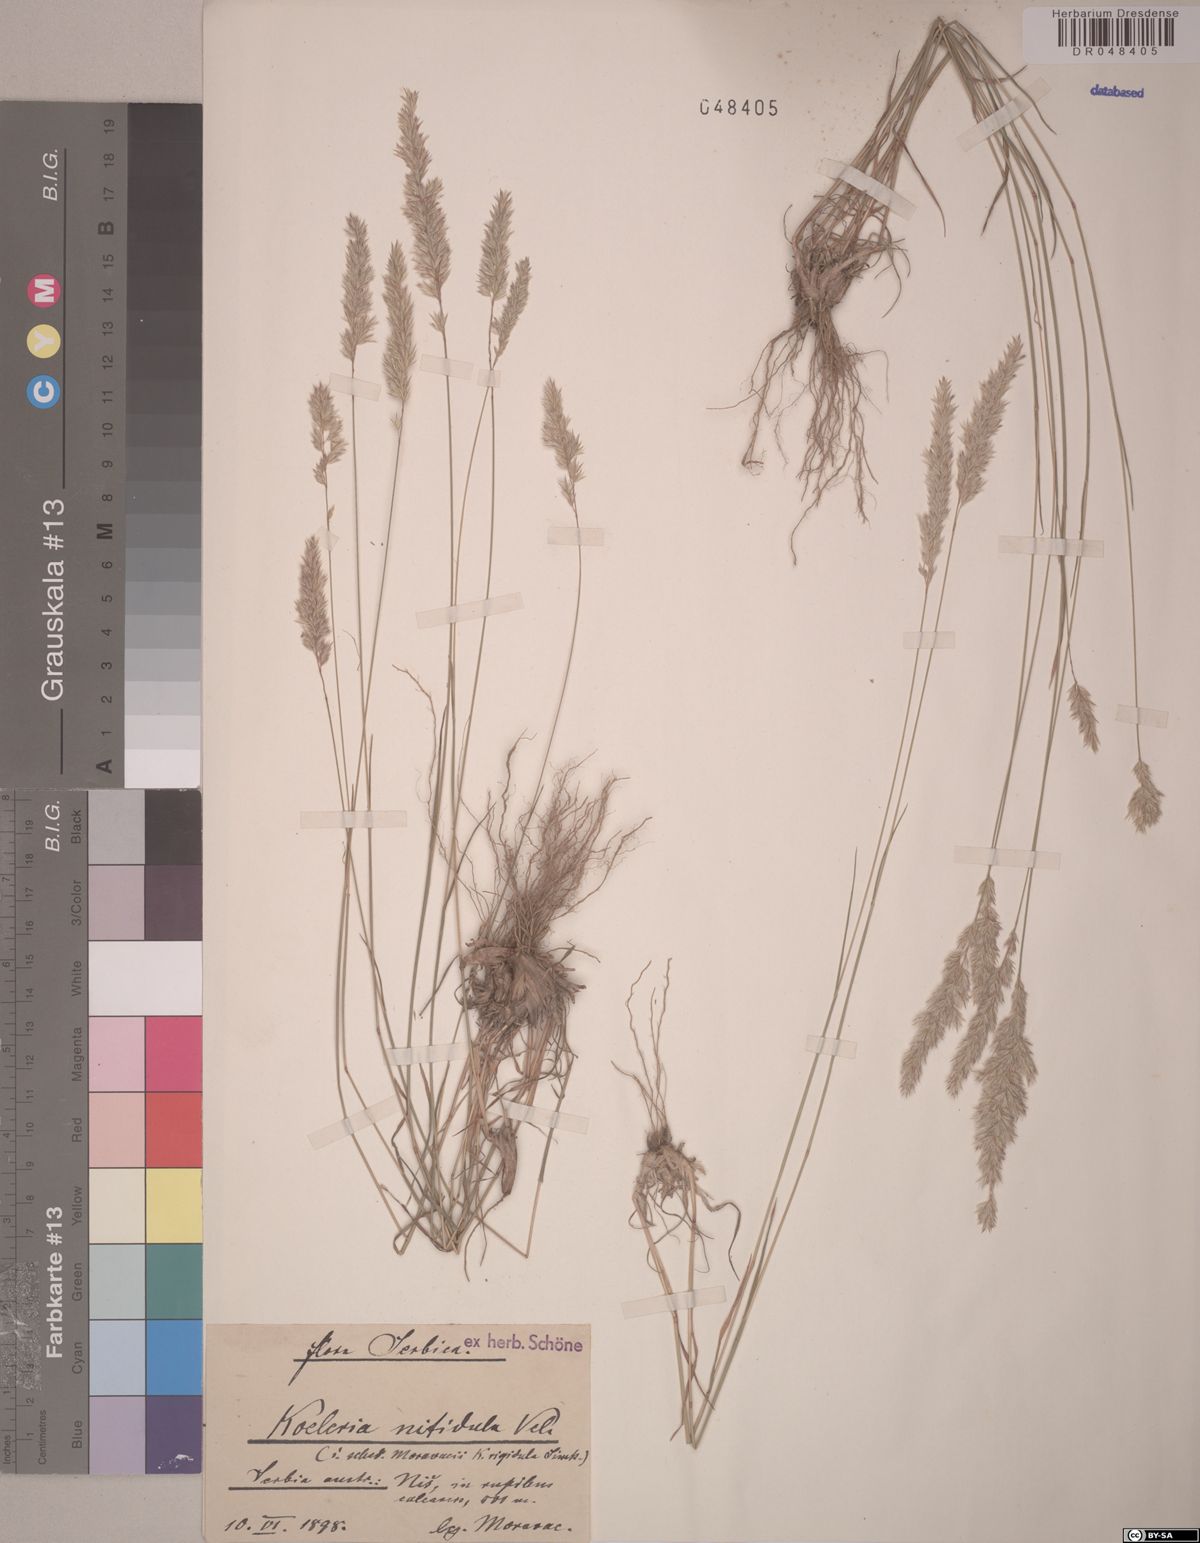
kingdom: Plantae
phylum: Tracheophyta
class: Liliopsida
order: Poales
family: Poaceae
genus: Koeleria
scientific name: Koeleria nitidula
